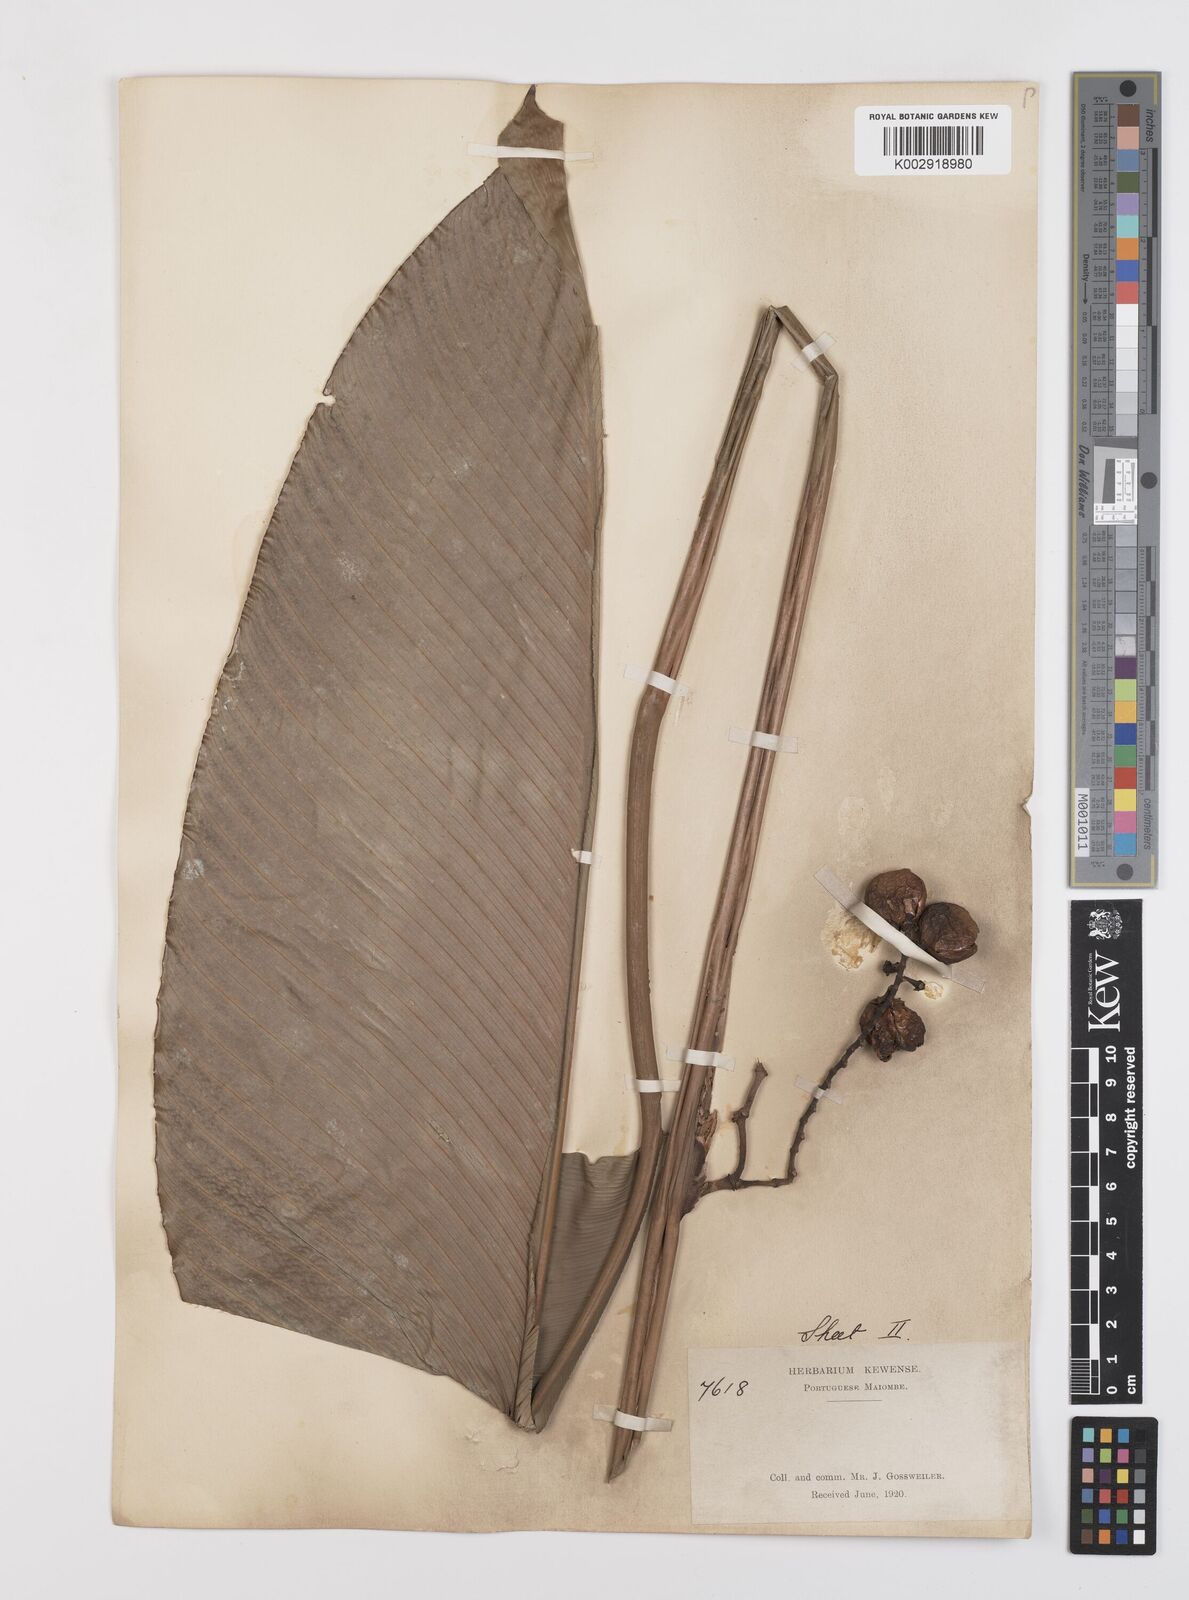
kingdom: Plantae
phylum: Tracheophyta
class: Liliopsida
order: Zingiberales
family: Marantaceae
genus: Megaphrynium
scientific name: Megaphrynium macrostachyum
